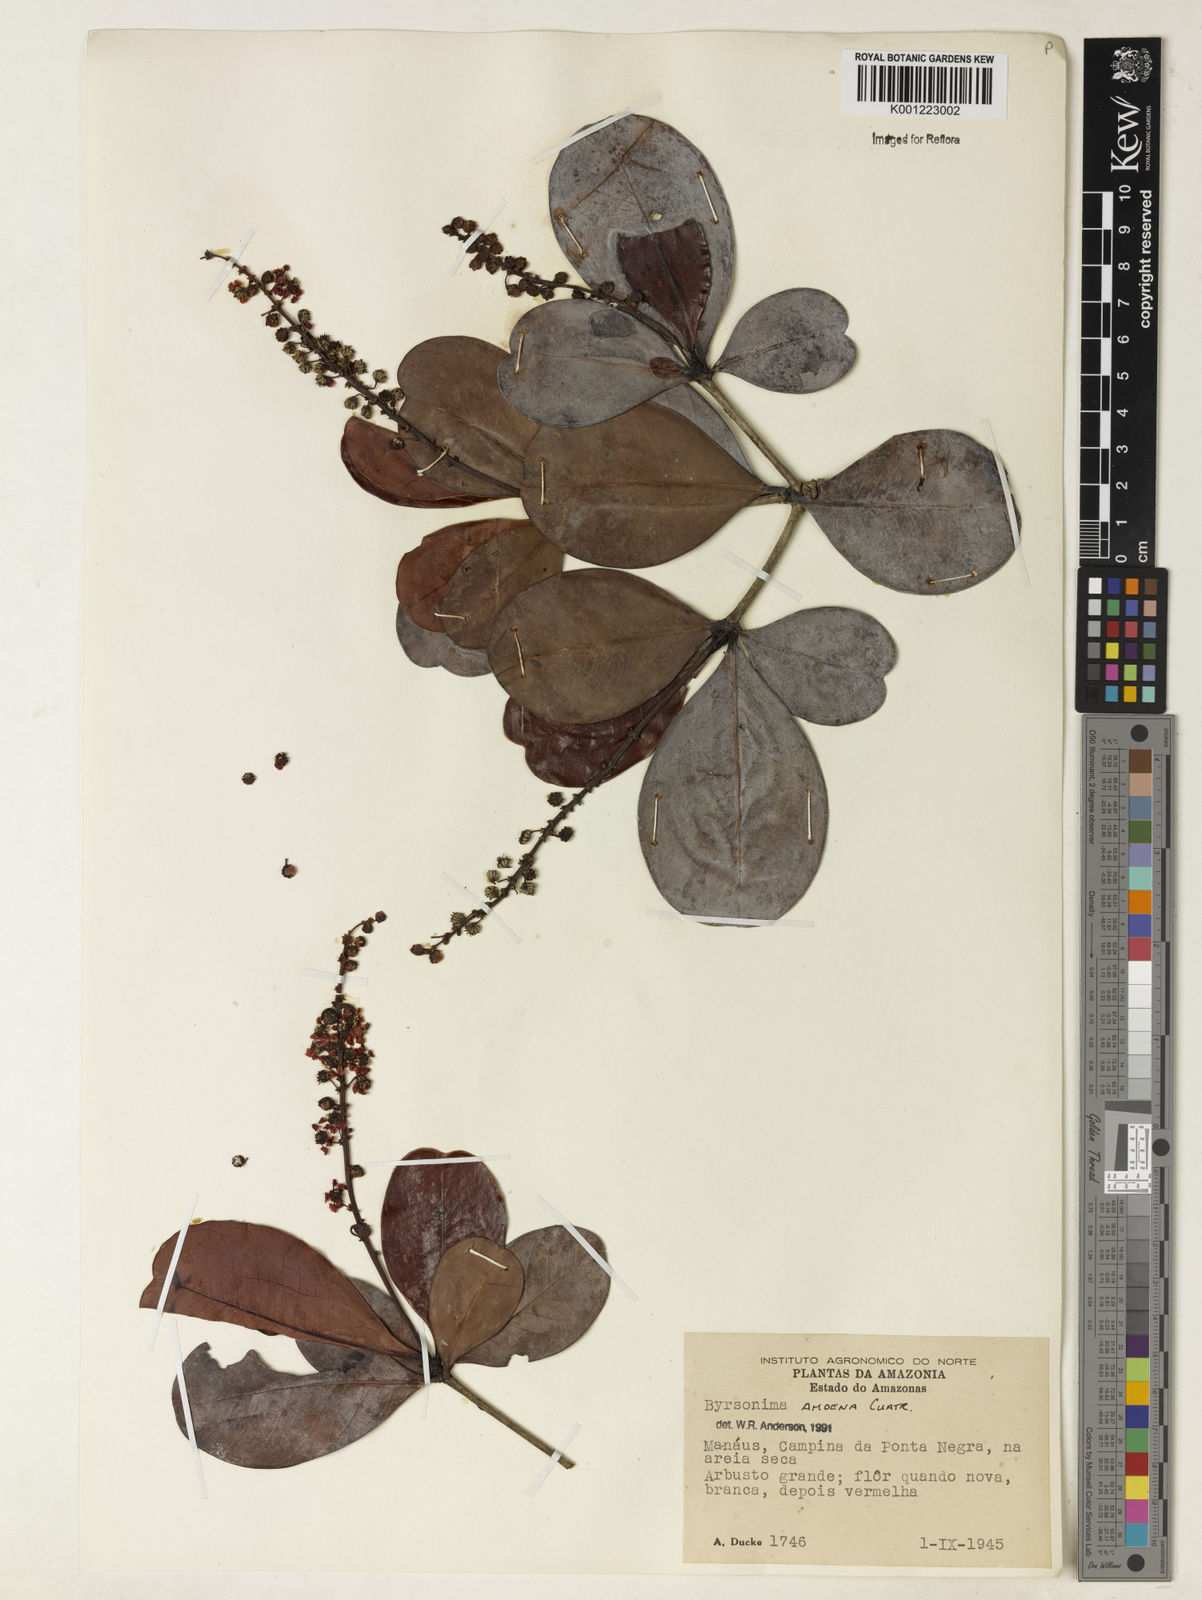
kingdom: Plantae
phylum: Tracheophyta
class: Magnoliopsida
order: Malpighiales
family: Malpighiaceae
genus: Byrsonima
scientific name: Byrsonima amoena
